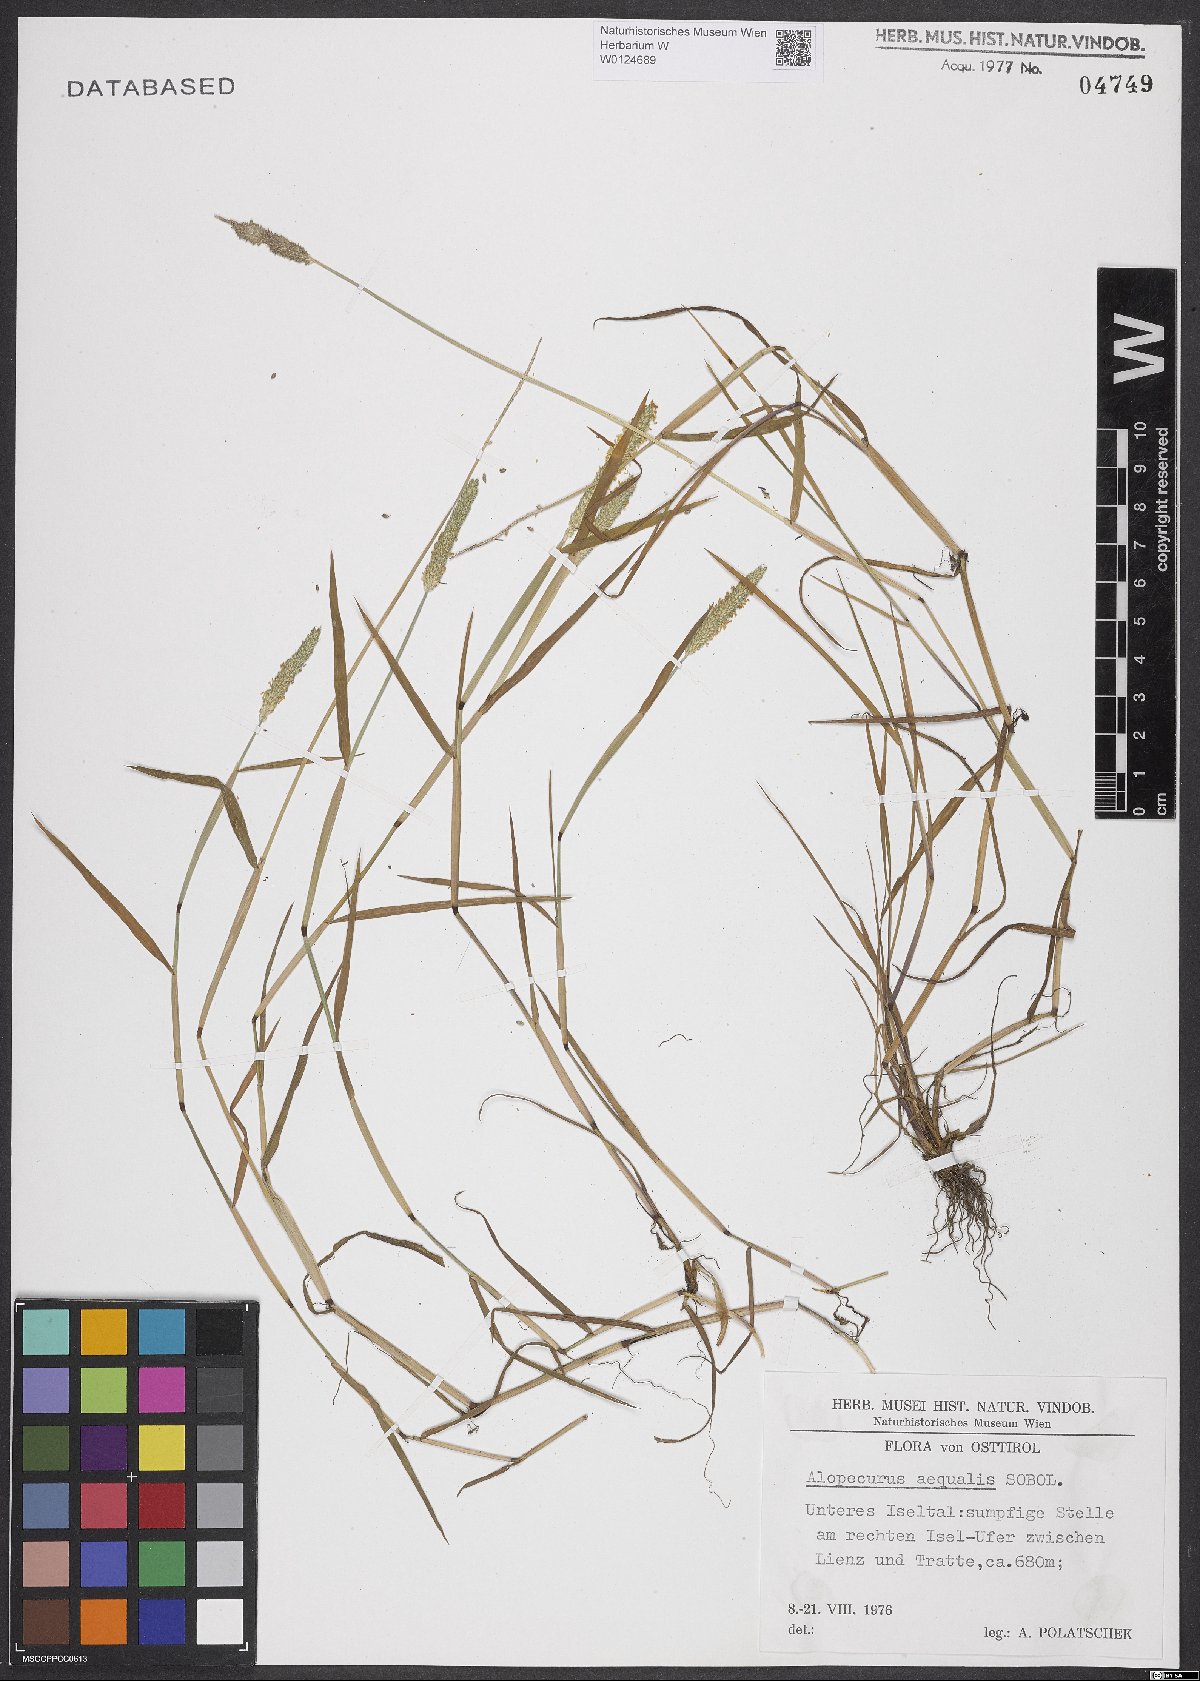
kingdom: Plantae
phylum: Tracheophyta
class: Liliopsida
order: Poales
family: Poaceae
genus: Alopecurus
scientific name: Alopecurus aequalis
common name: Orange foxtail
